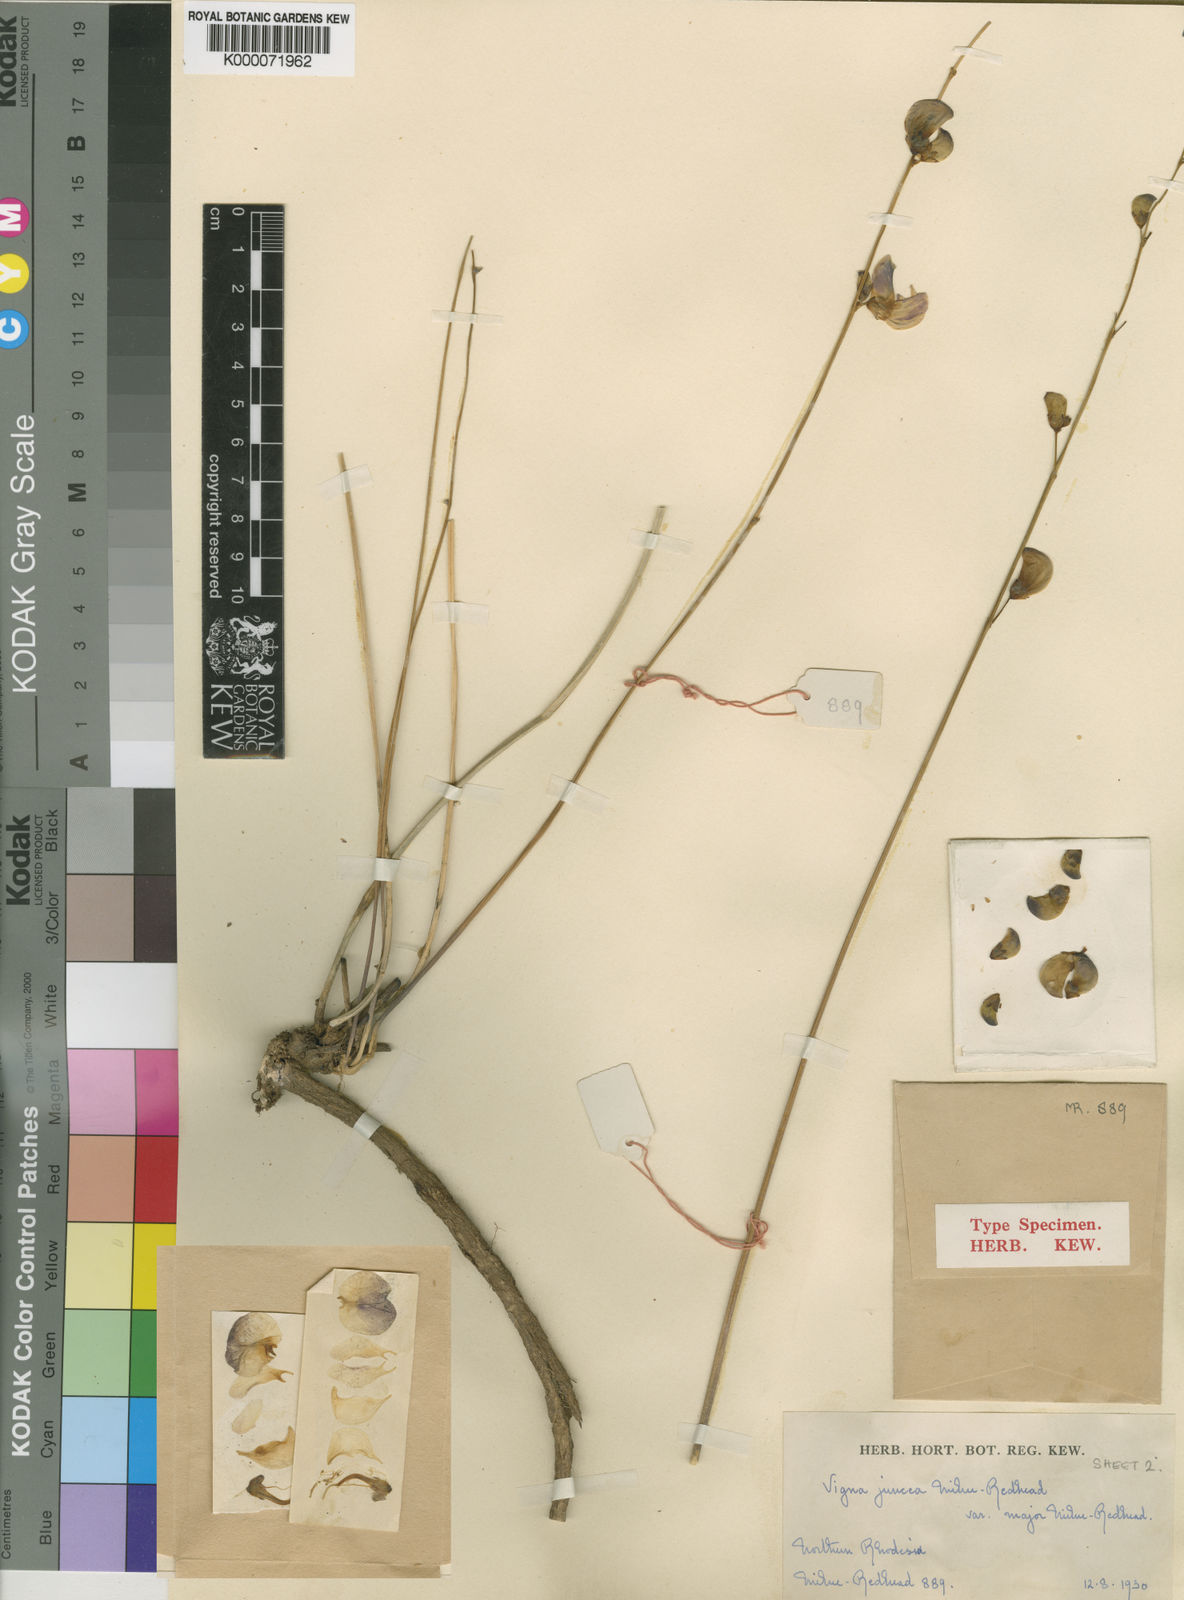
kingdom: Plantae
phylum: Tracheophyta
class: Magnoliopsida
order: Fabales
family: Fabaceae
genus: Vigna
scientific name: Vigna juncea
